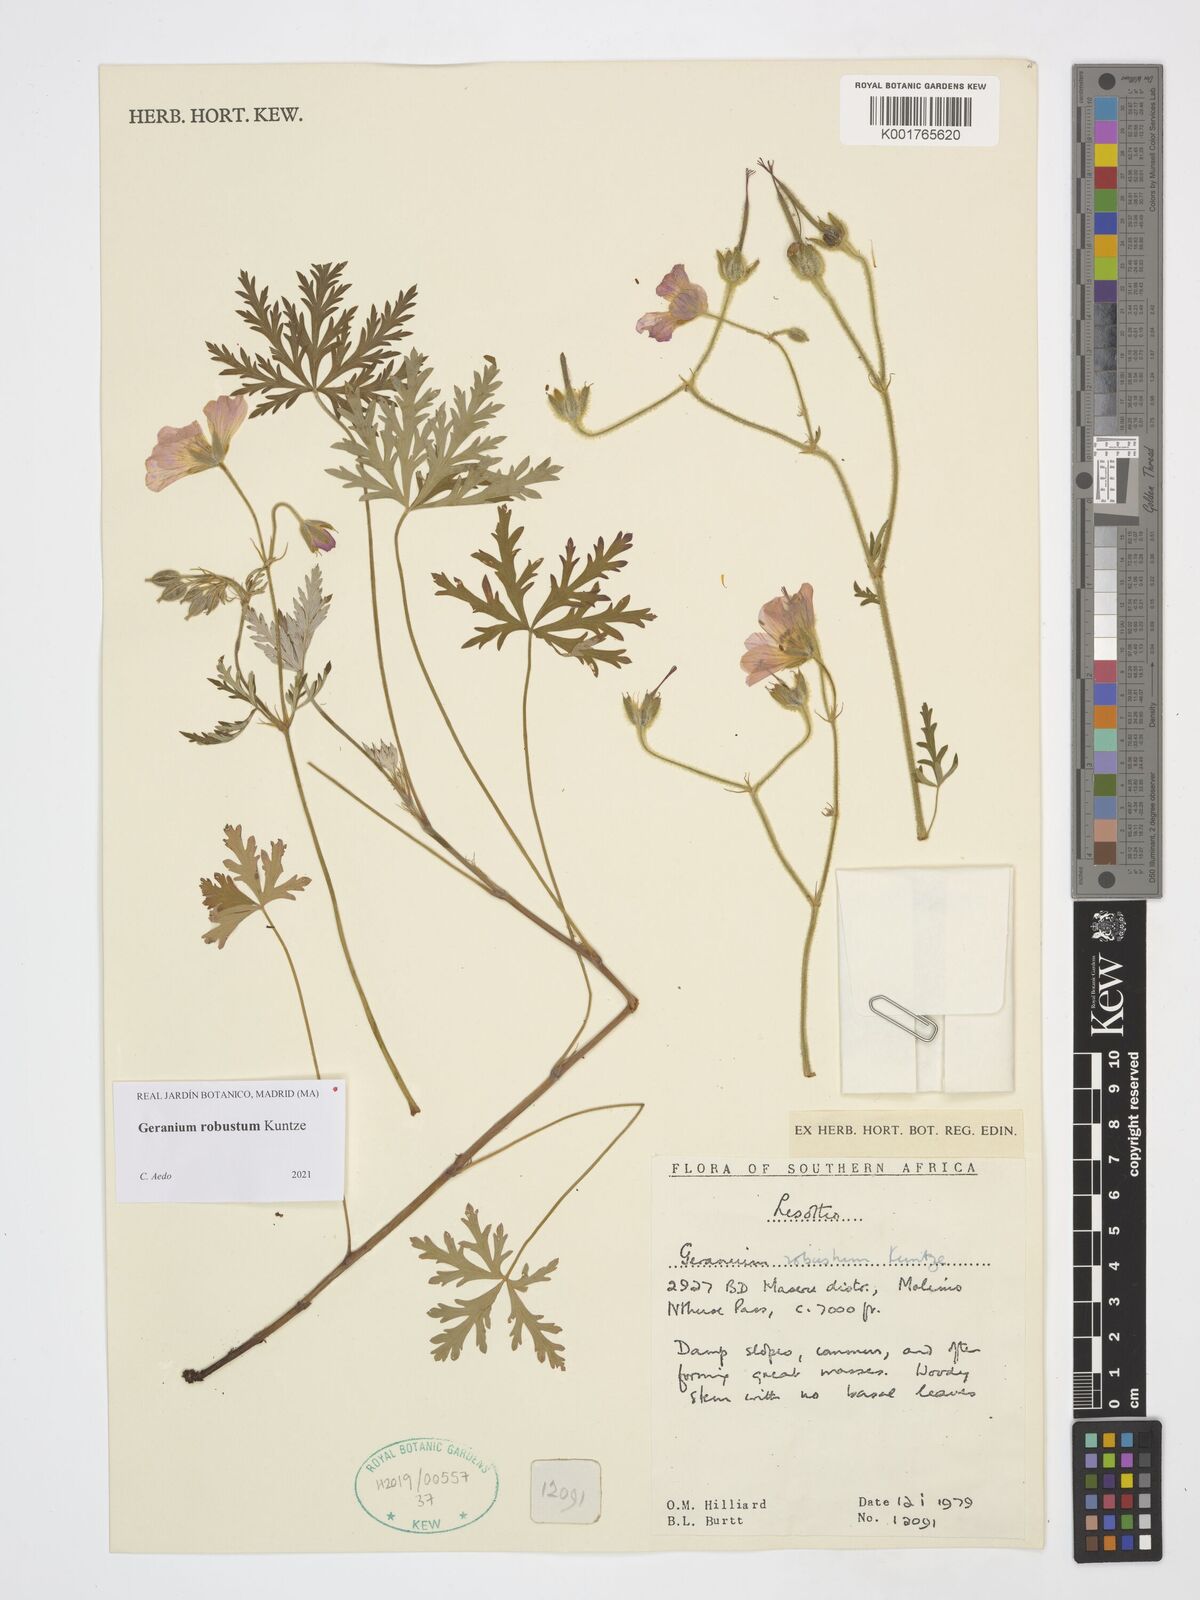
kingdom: Plantae
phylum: Tracheophyta
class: Magnoliopsida
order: Geraniales
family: Geraniaceae
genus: Geranium
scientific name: Geranium robustum
